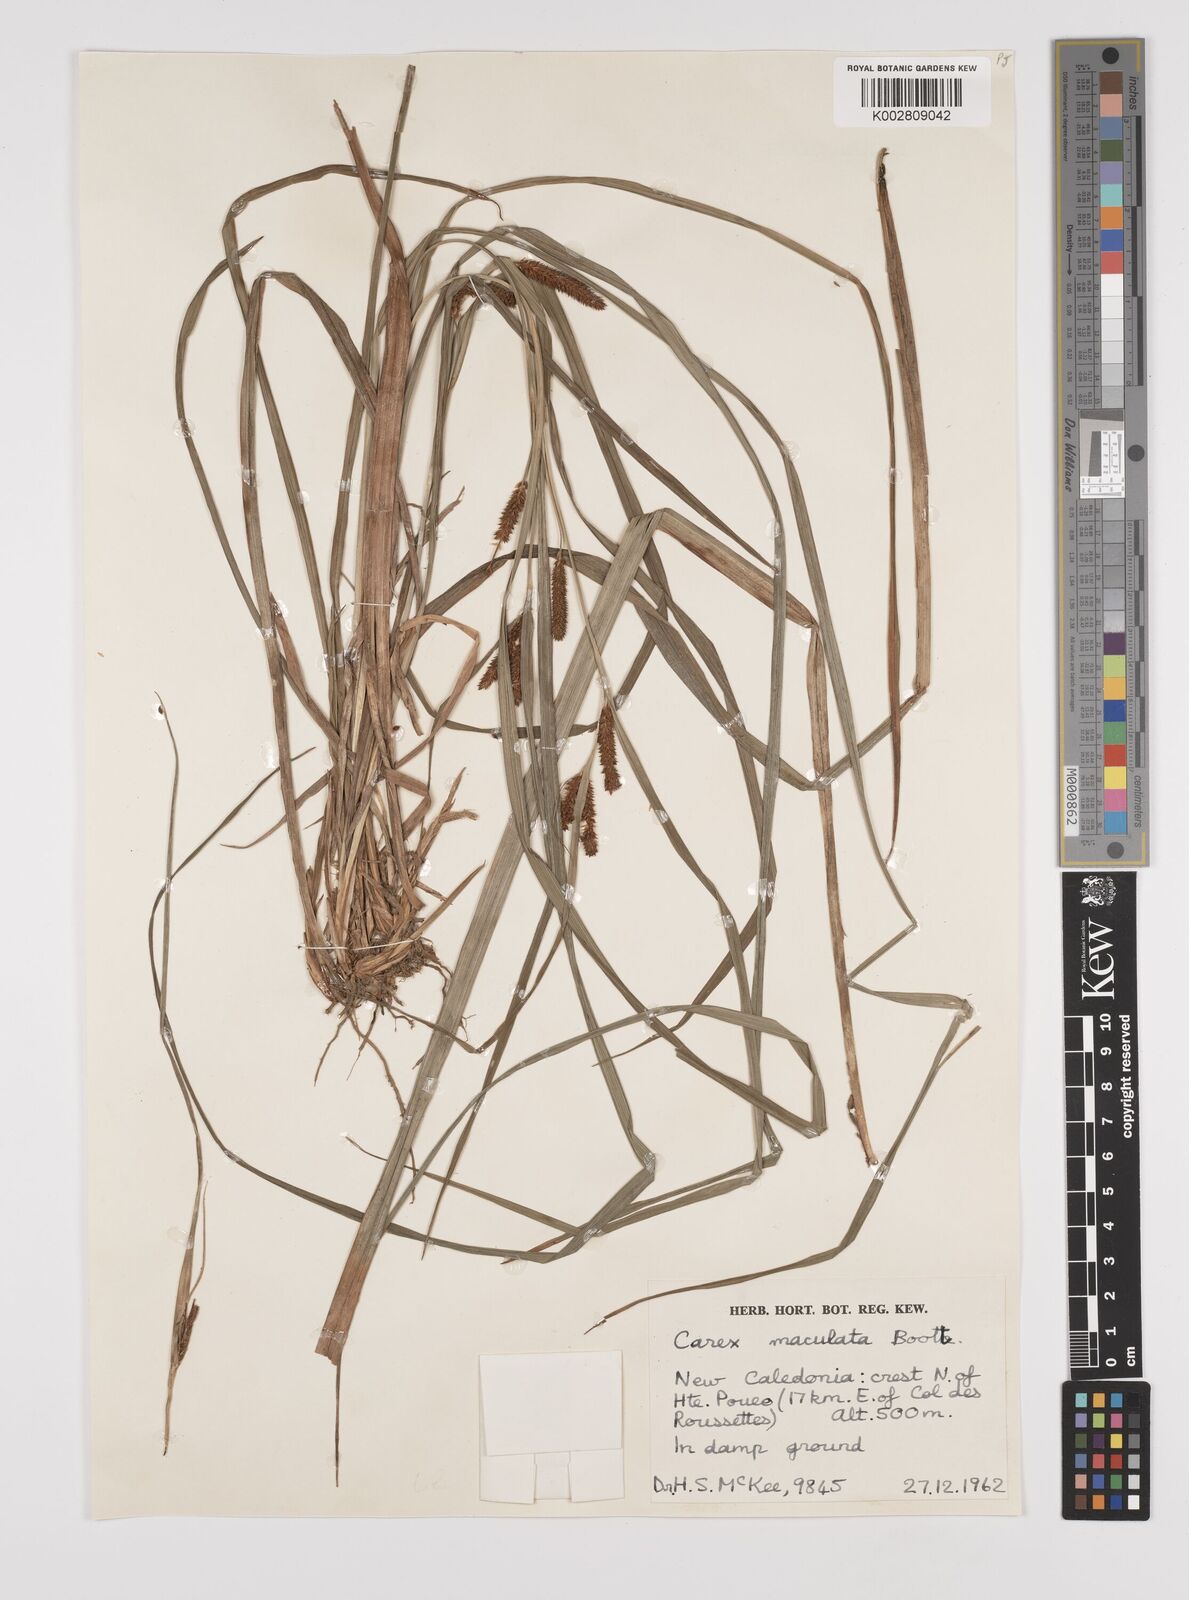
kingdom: Plantae
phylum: Tracheophyta
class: Liliopsida
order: Poales
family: Cyperaceae
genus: Carex
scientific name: Carex maculata
